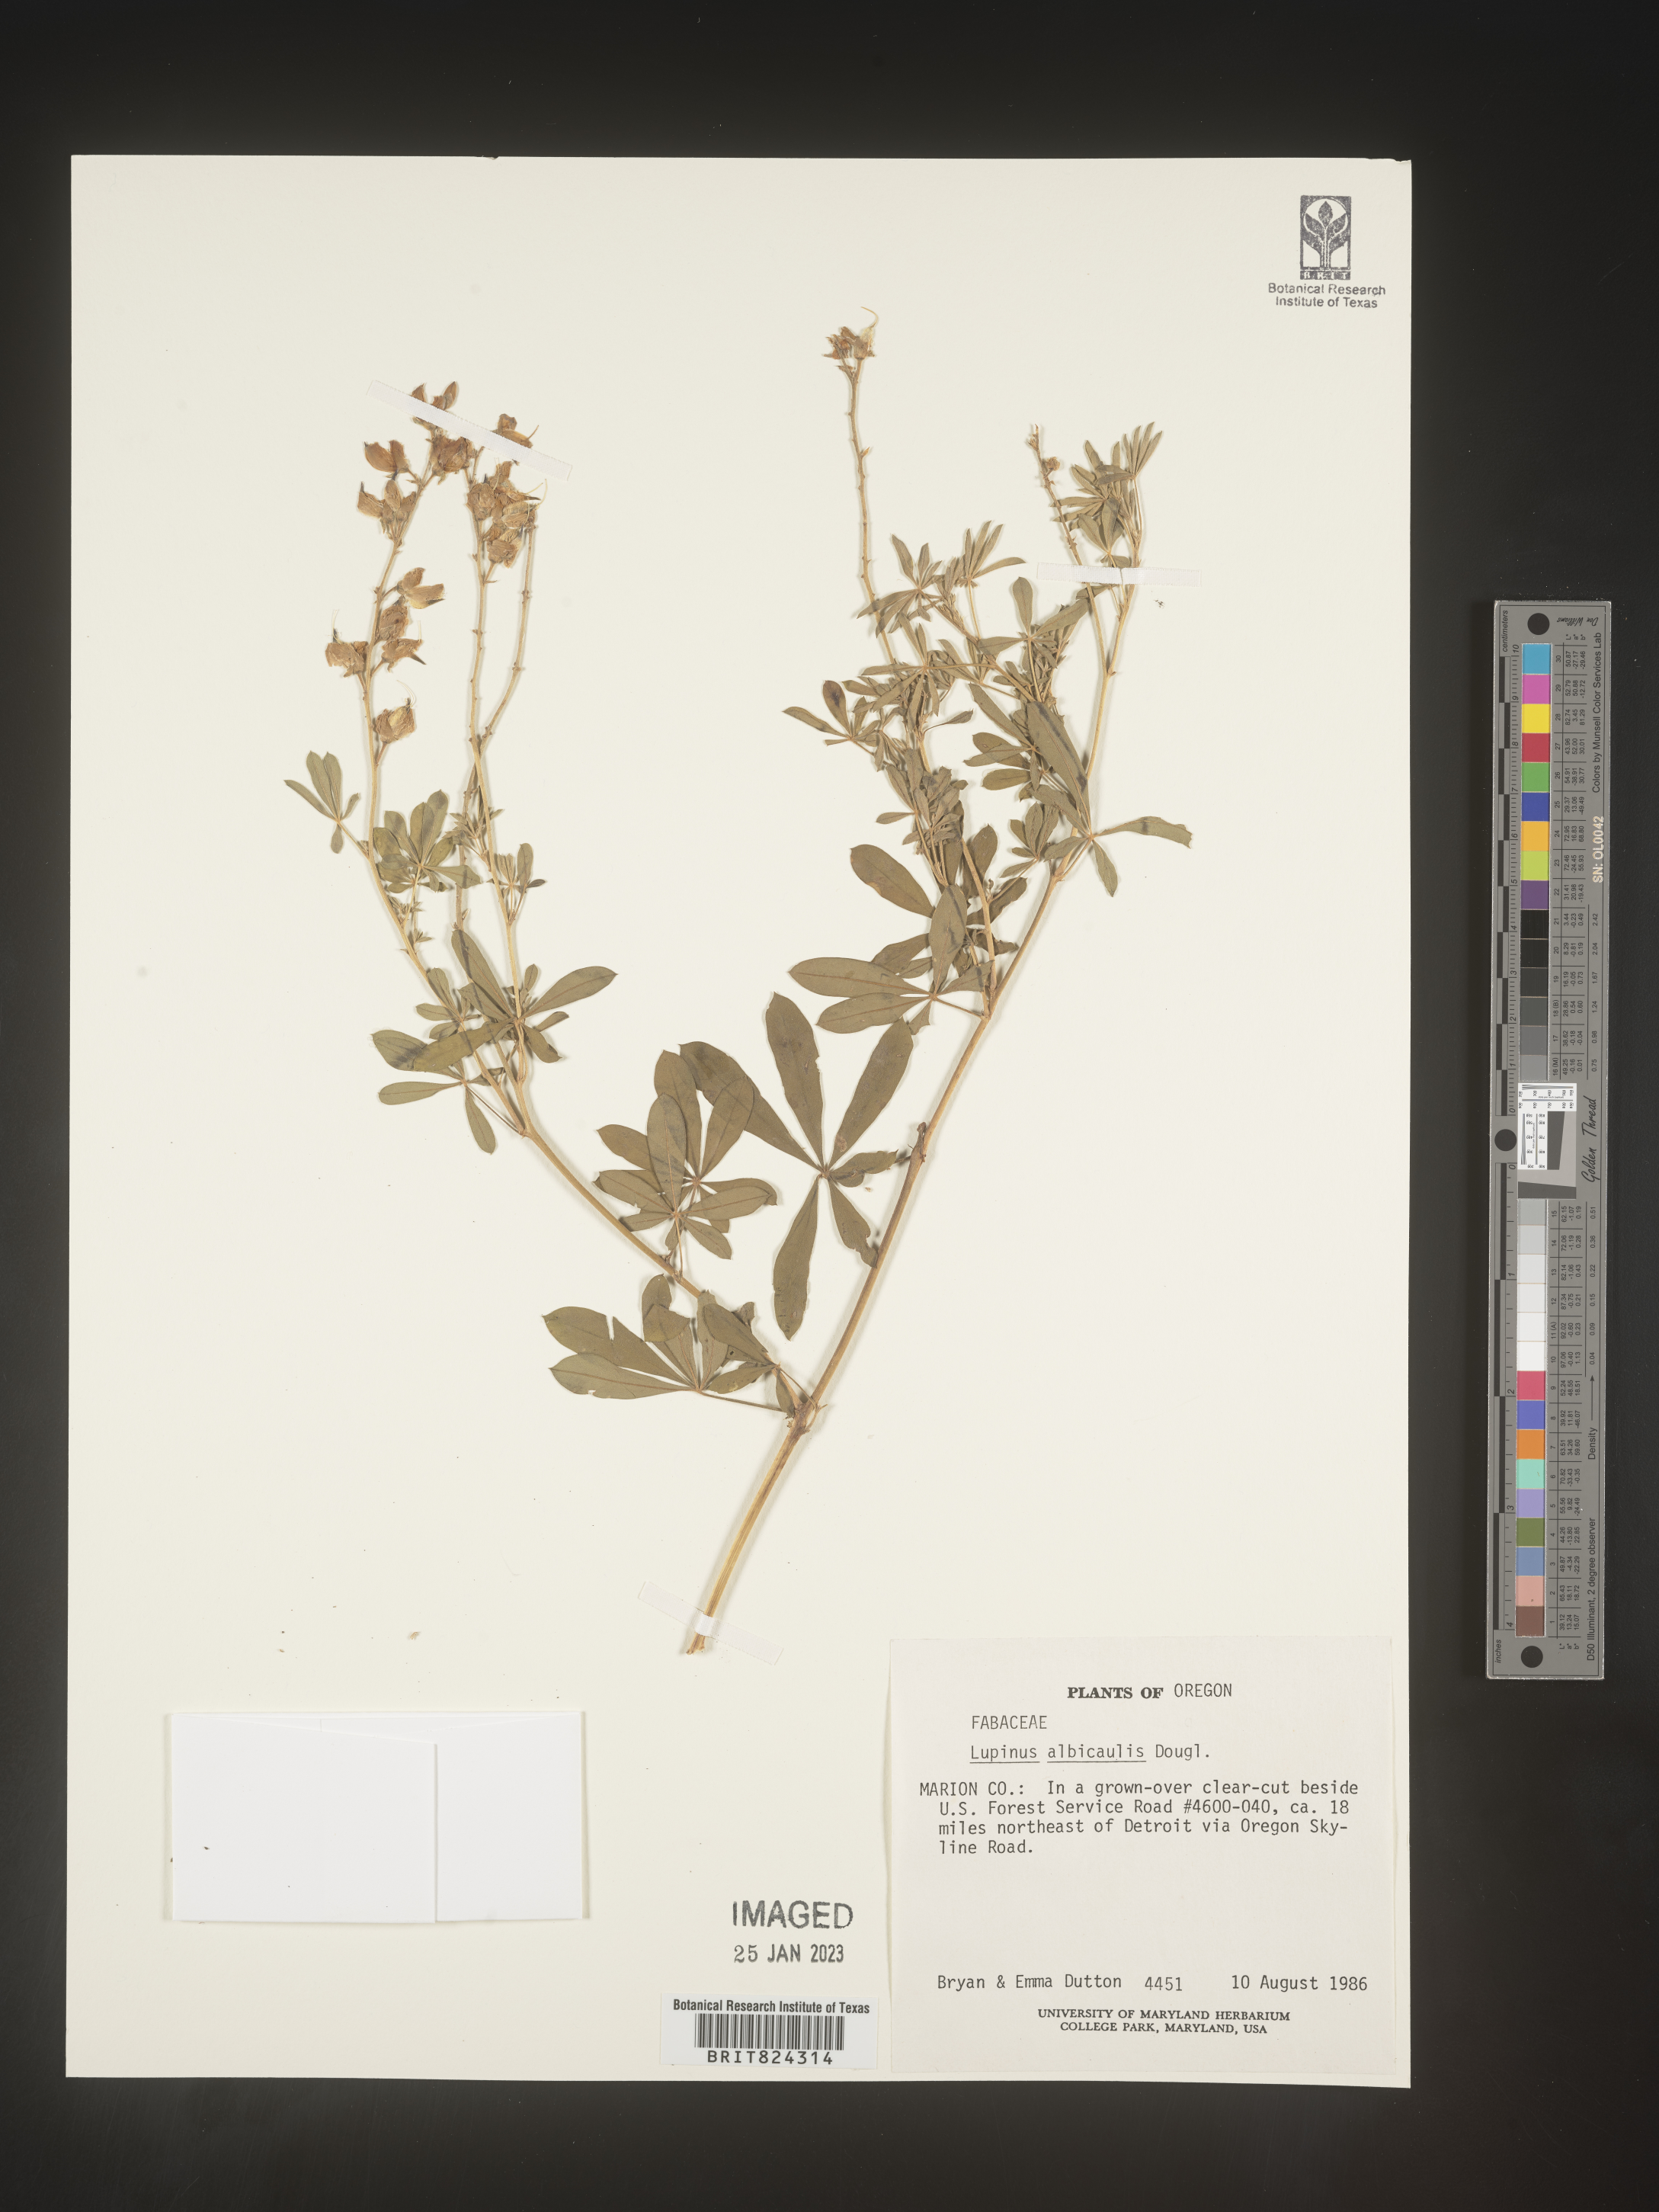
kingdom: Plantae
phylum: Tracheophyta
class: Magnoliopsida
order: Fabales
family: Fabaceae
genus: Lupinus
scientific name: Lupinus albicaulis
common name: Pine lupine
